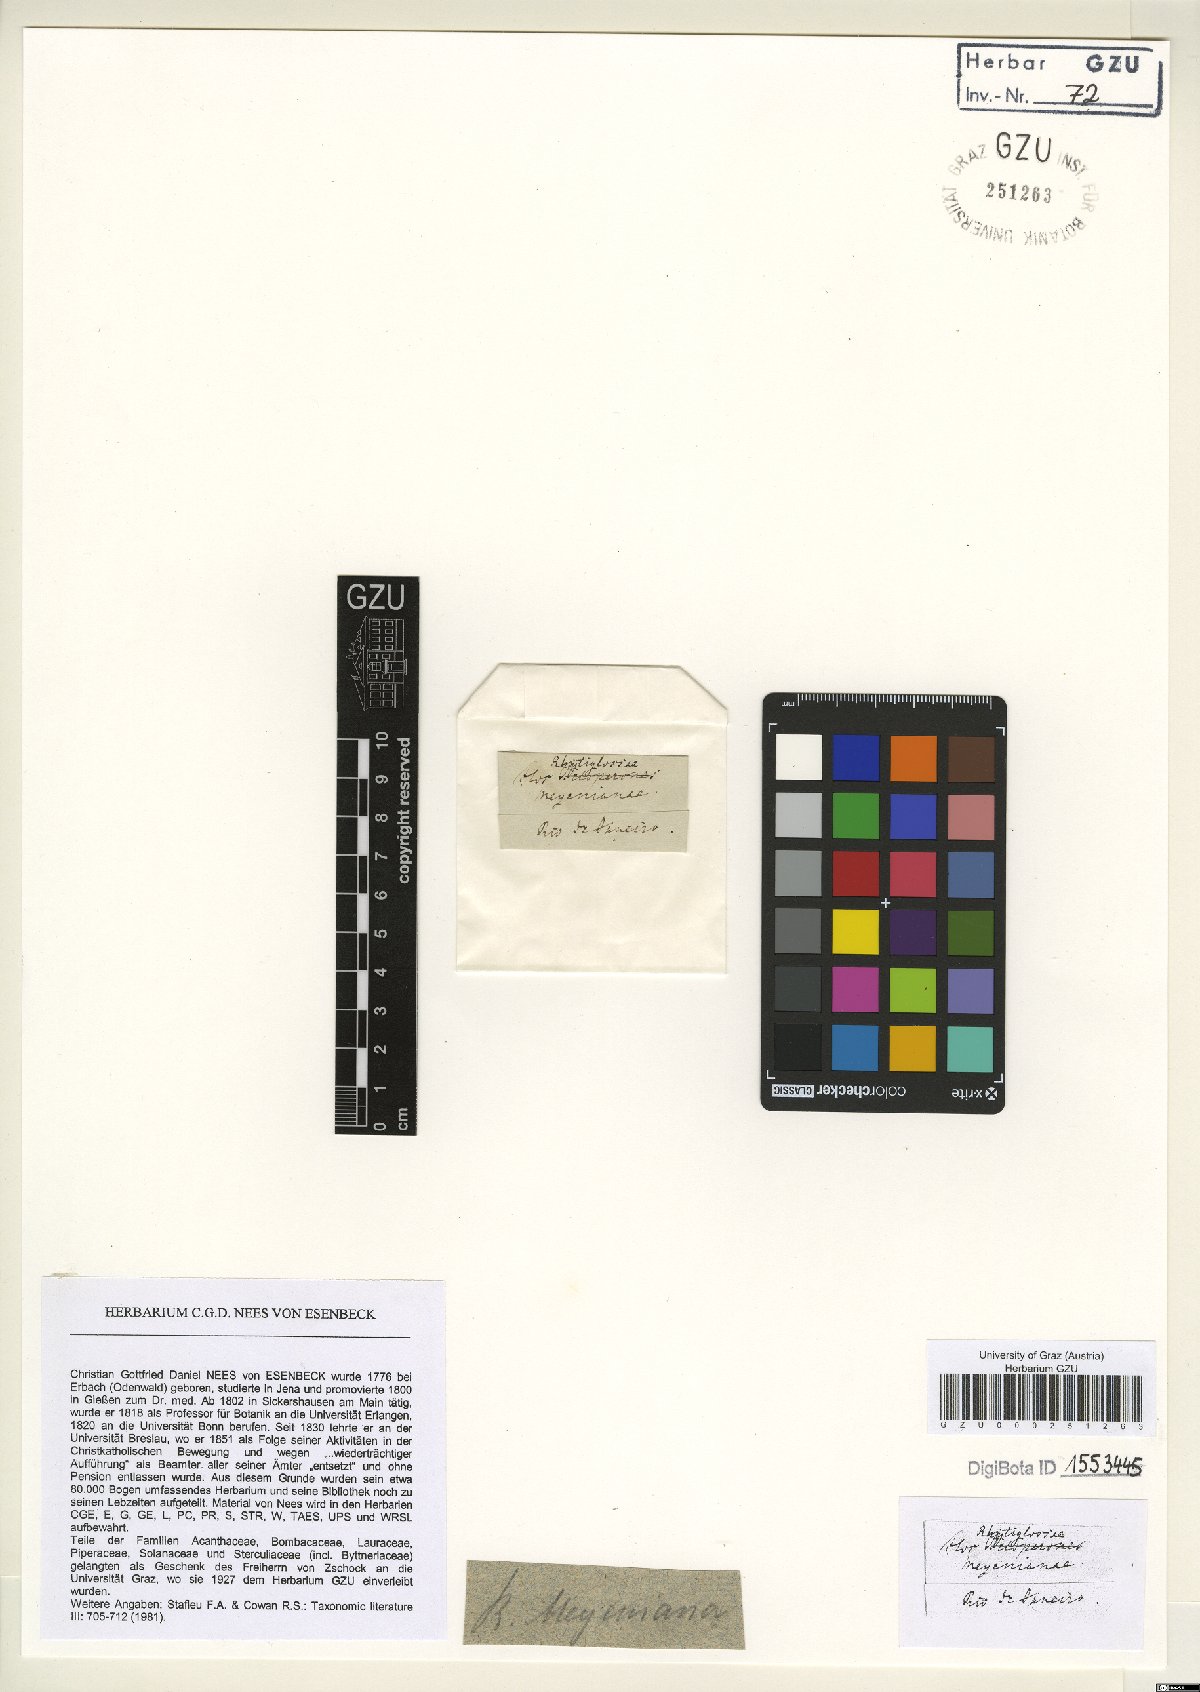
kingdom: Plantae
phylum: Tracheophyta
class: Magnoliopsida
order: Lamiales
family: Acanthaceae
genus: Justicia
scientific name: Justicia meyeniana
